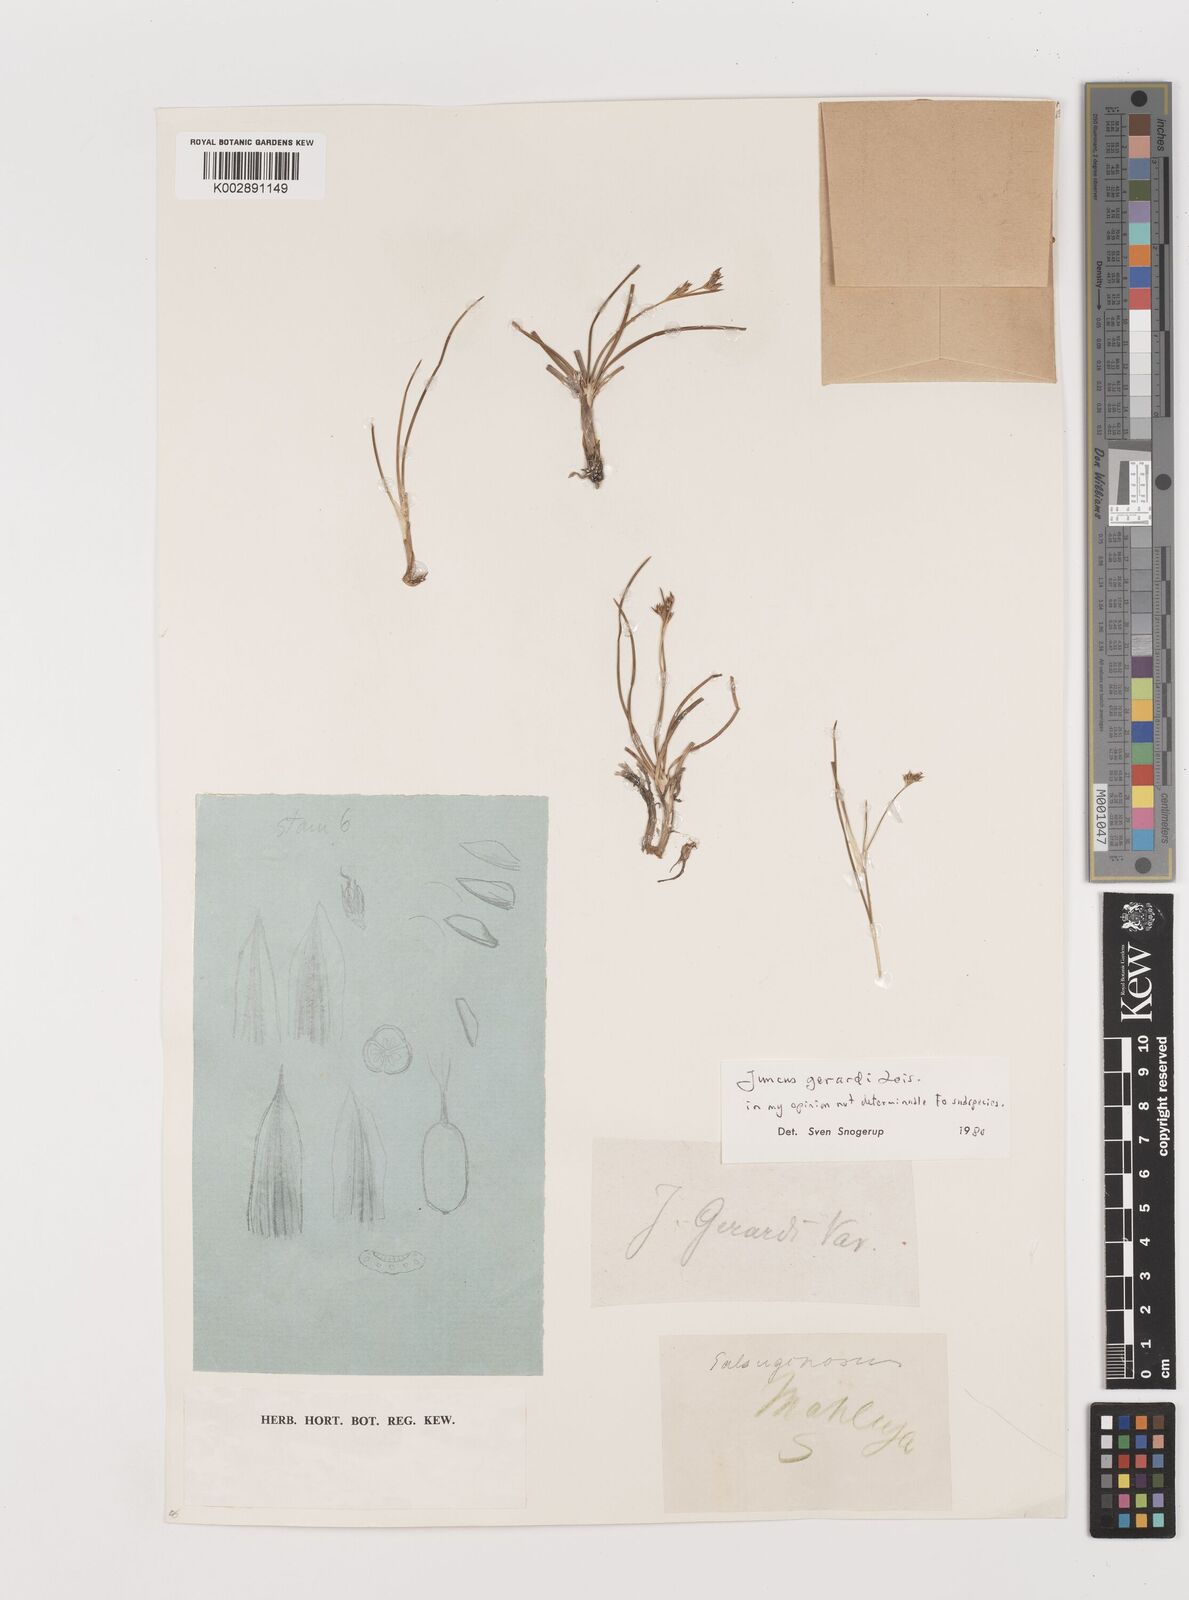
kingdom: Plantae
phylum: Tracheophyta
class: Liliopsida
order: Poales
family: Juncaceae
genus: Juncus
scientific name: Juncus gerardi
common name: Saltmarsh rush
